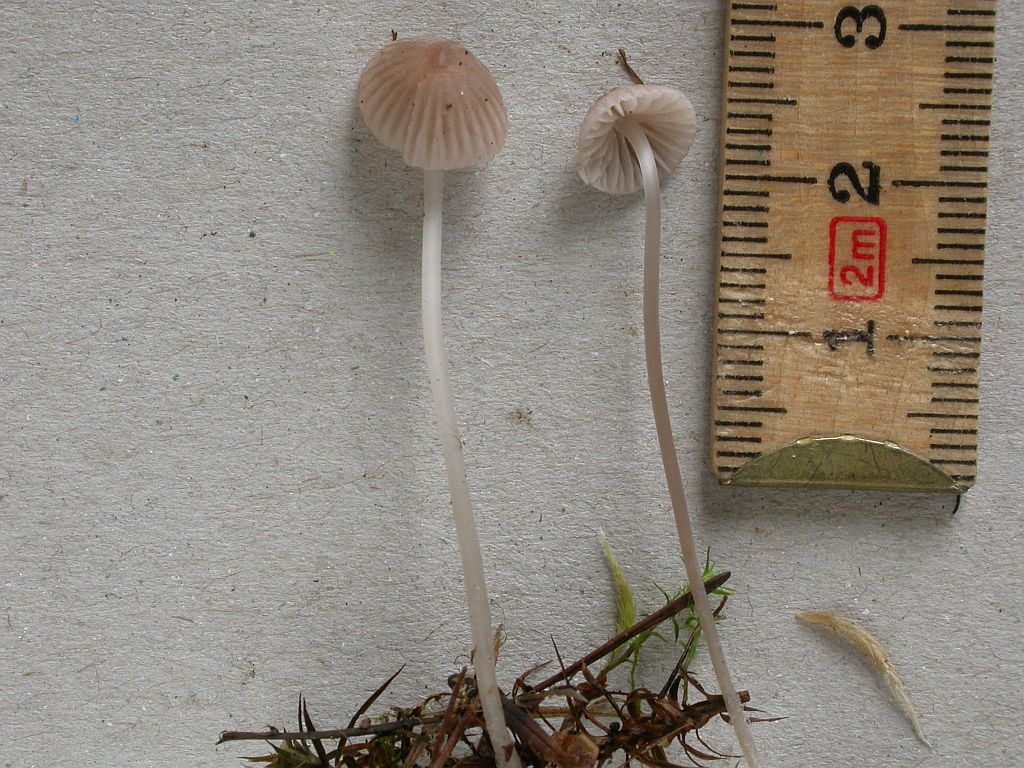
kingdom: Fungi
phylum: Basidiomycota
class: Agaricomycetes
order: Agaricales
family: Mycenaceae
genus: Mycena
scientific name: Mycena capillaripes
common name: nåle-huesvamp
